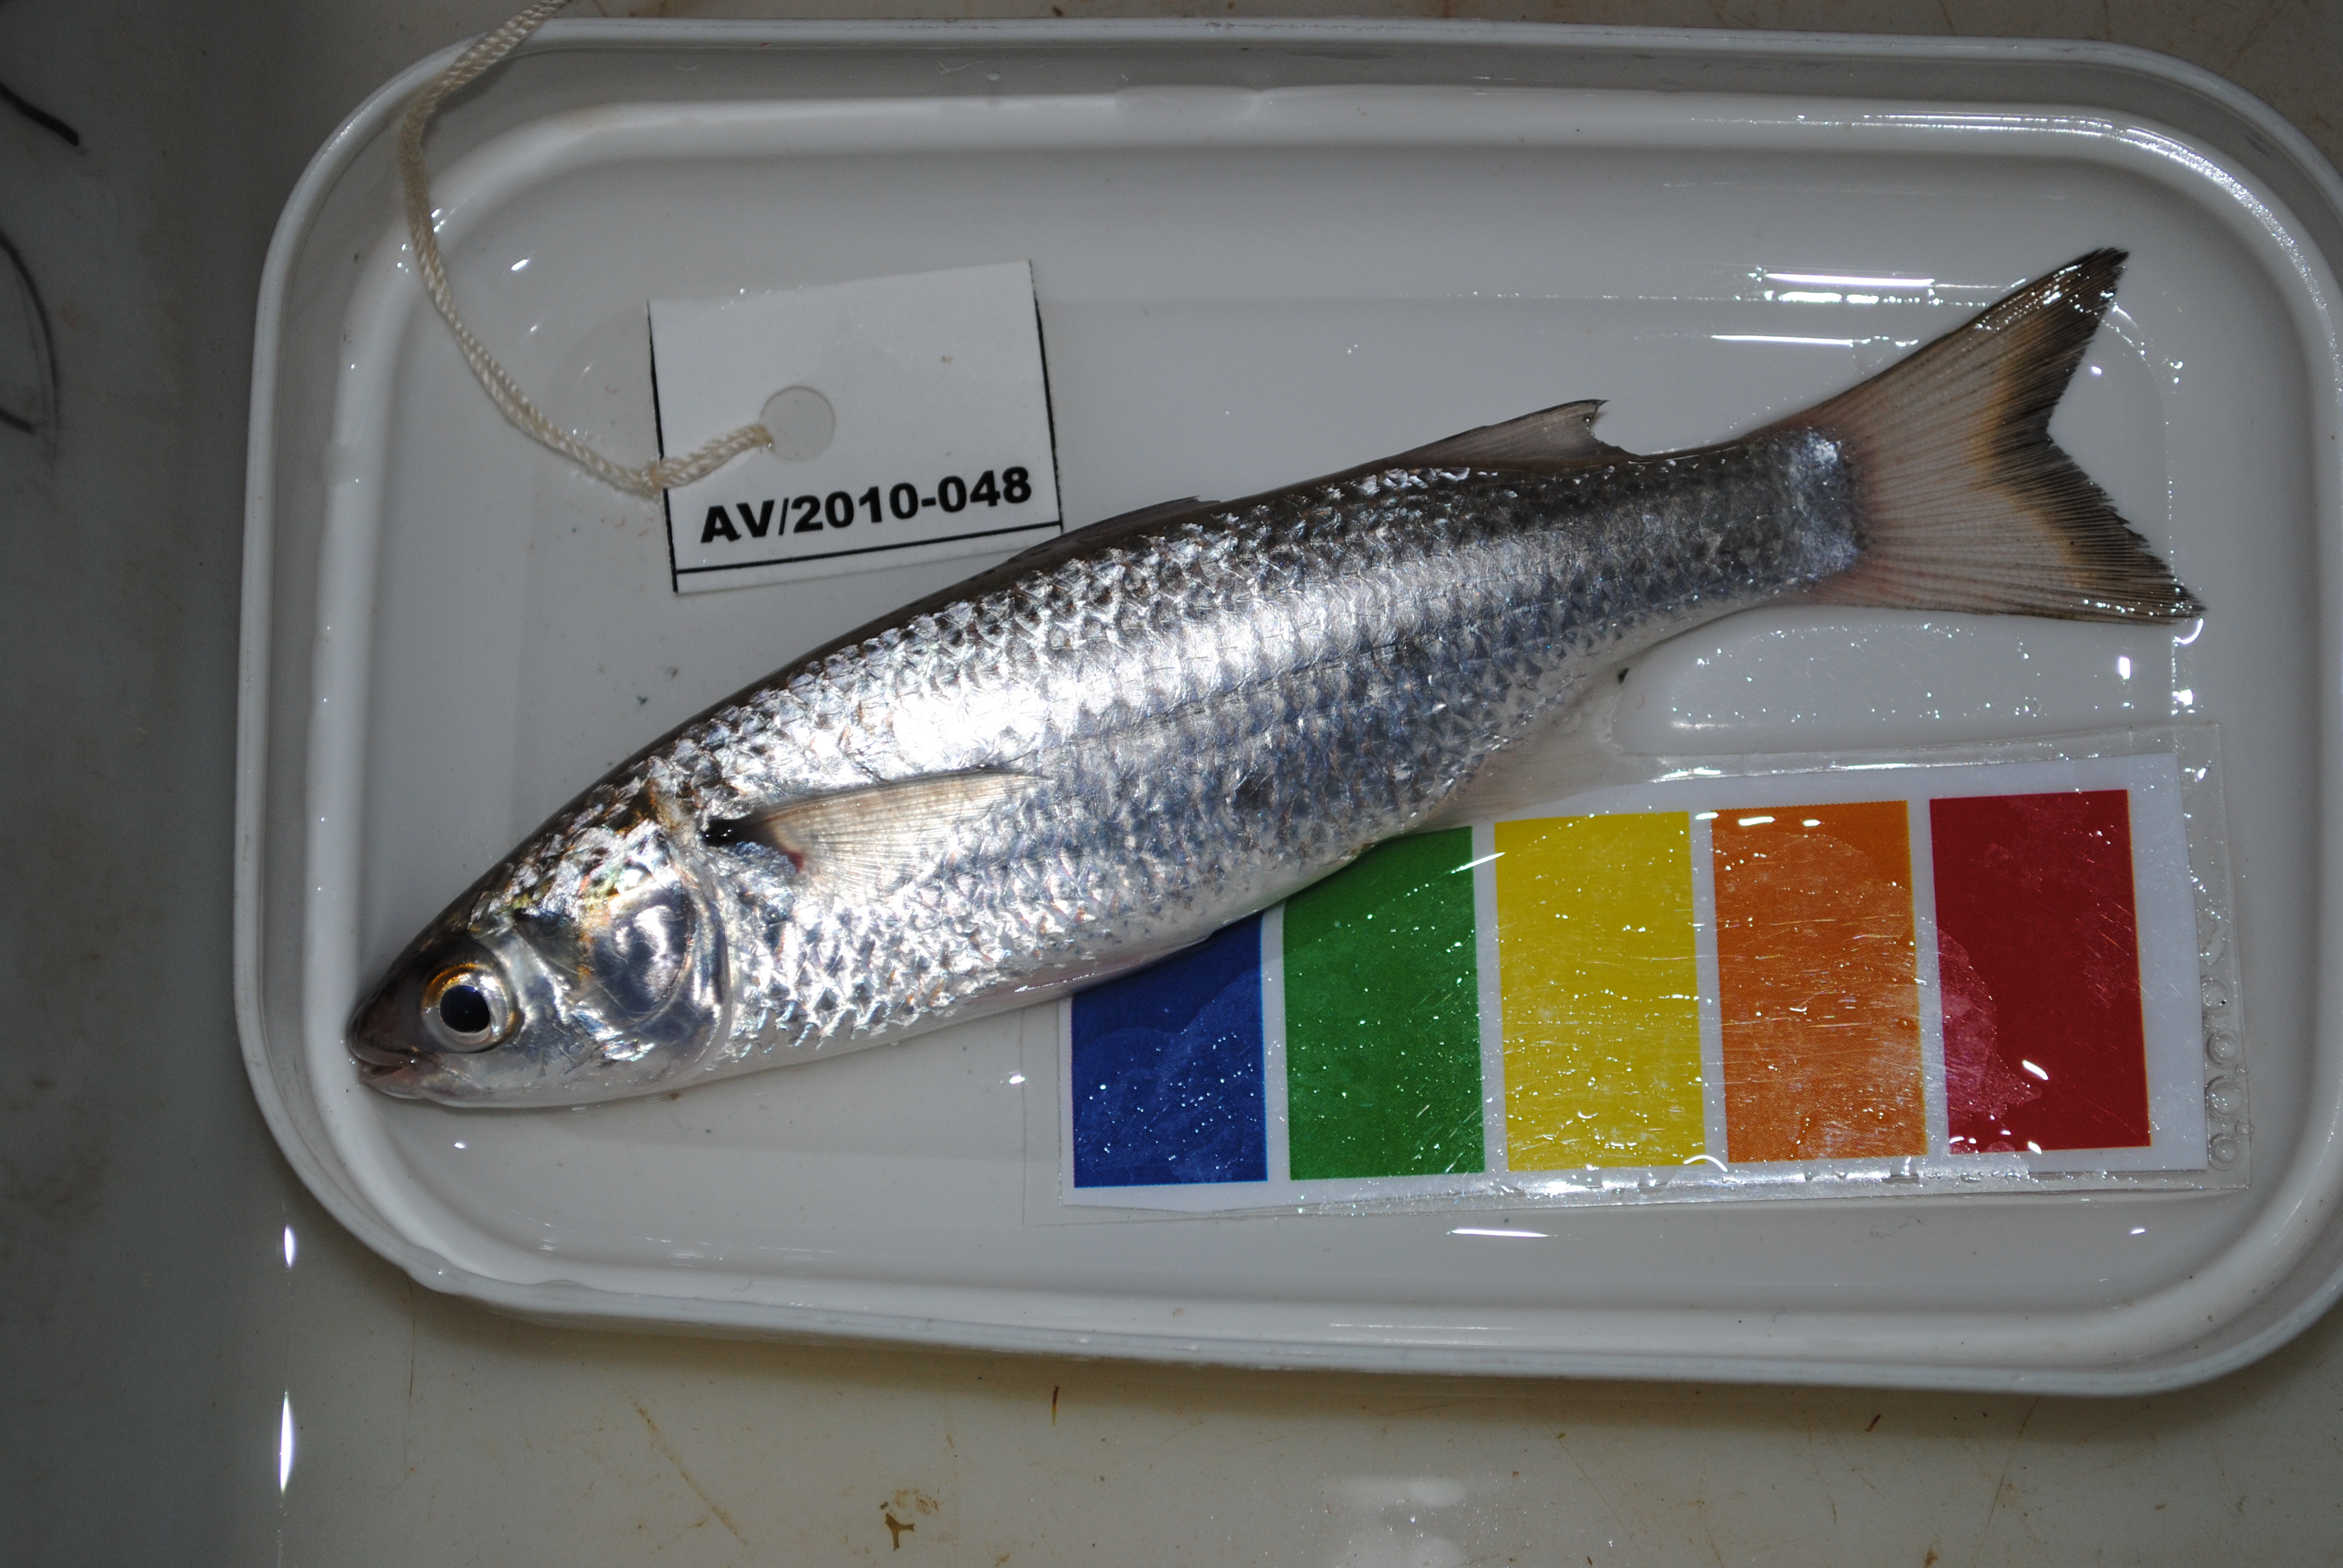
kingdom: Animalia
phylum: Chordata
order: Mugiliformes
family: Mugilidae
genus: Valamugil
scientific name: Valamugil
